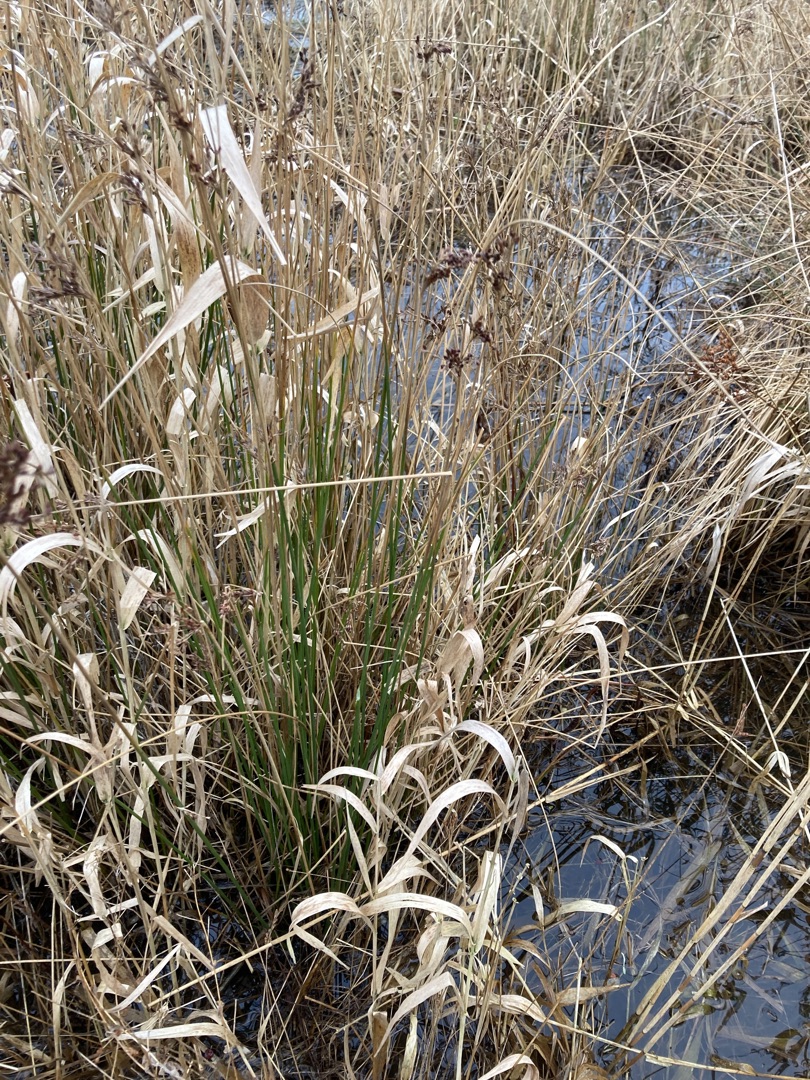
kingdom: Plantae
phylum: Tracheophyta
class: Liliopsida
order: Poales
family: Juncaceae
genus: Juncus
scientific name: Juncus conglomeratus
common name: Knop-siv
